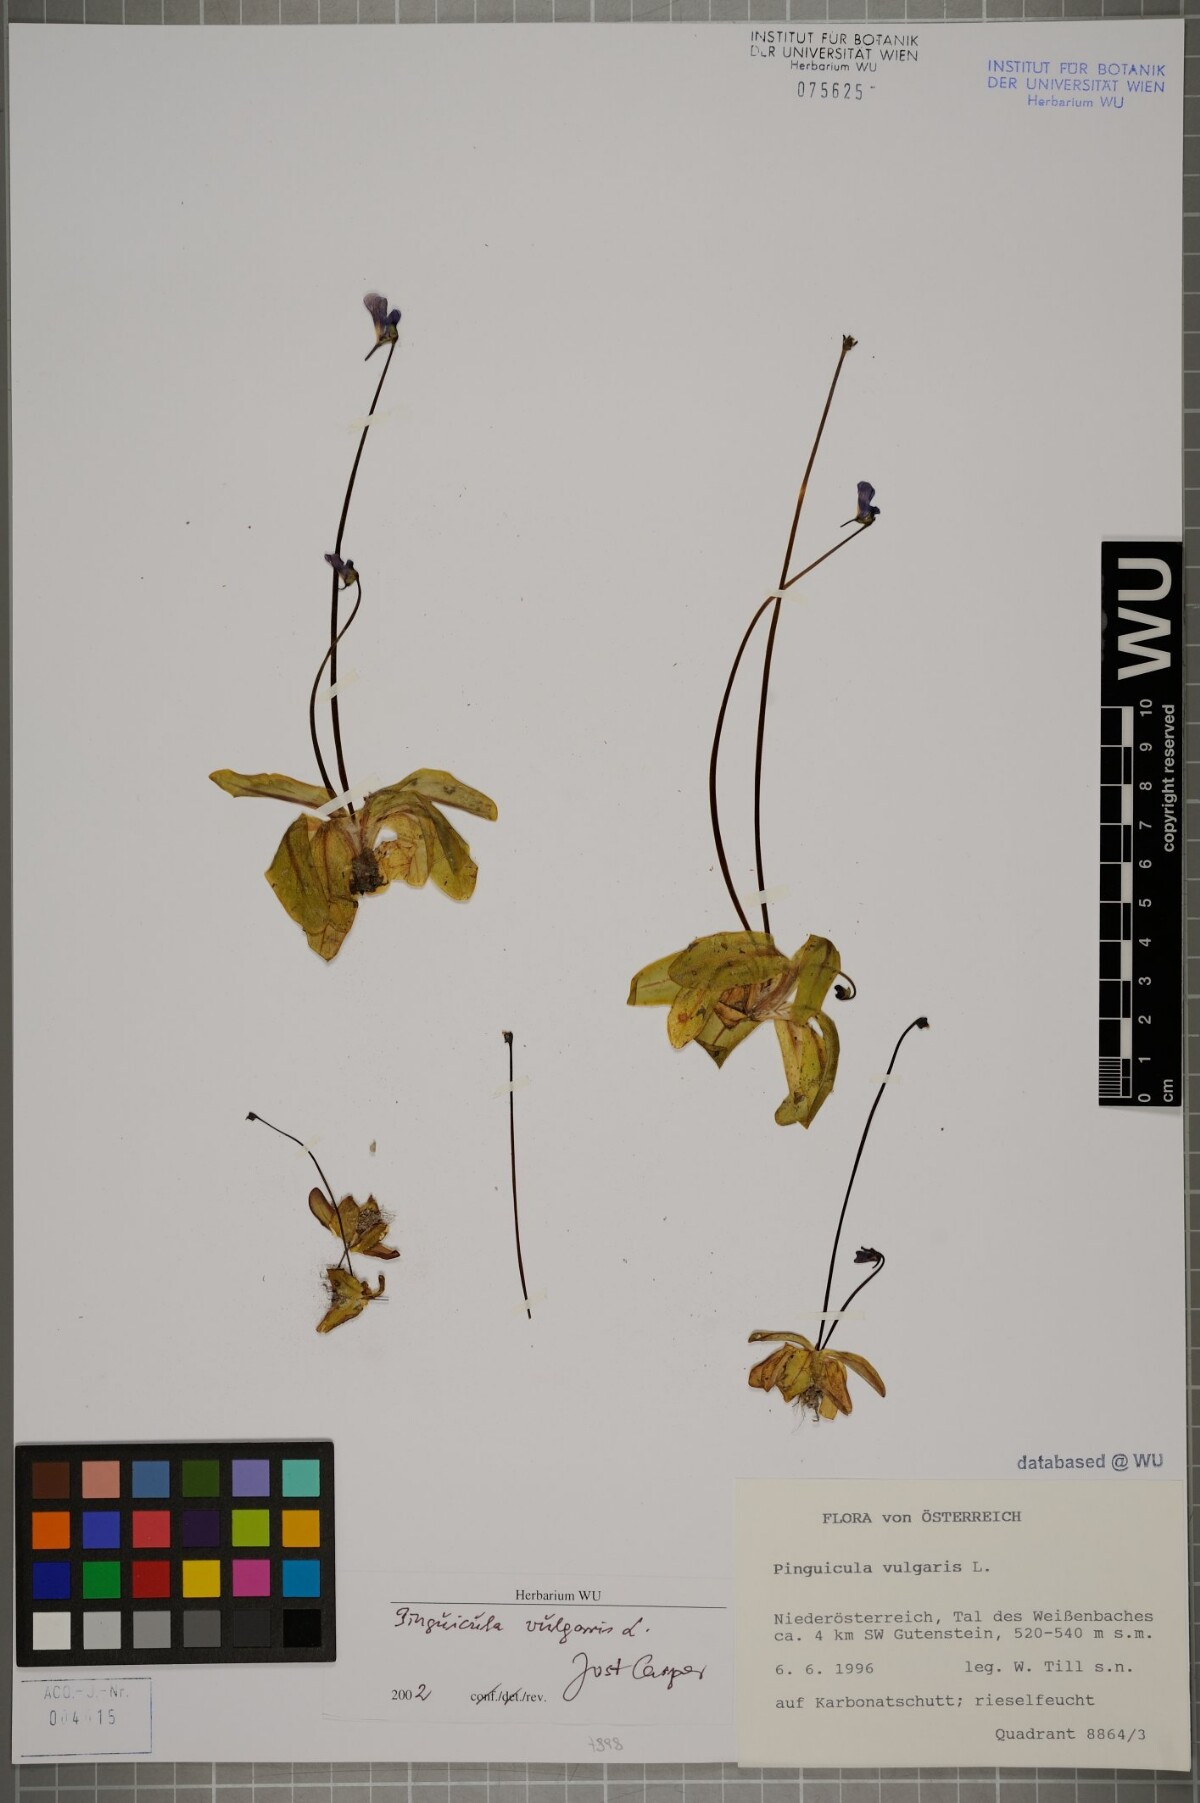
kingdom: Plantae
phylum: Tracheophyta
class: Magnoliopsida
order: Lamiales
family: Lentibulariaceae
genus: Pinguicula
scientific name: Pinguicula vulgaris
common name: Common butterwort
